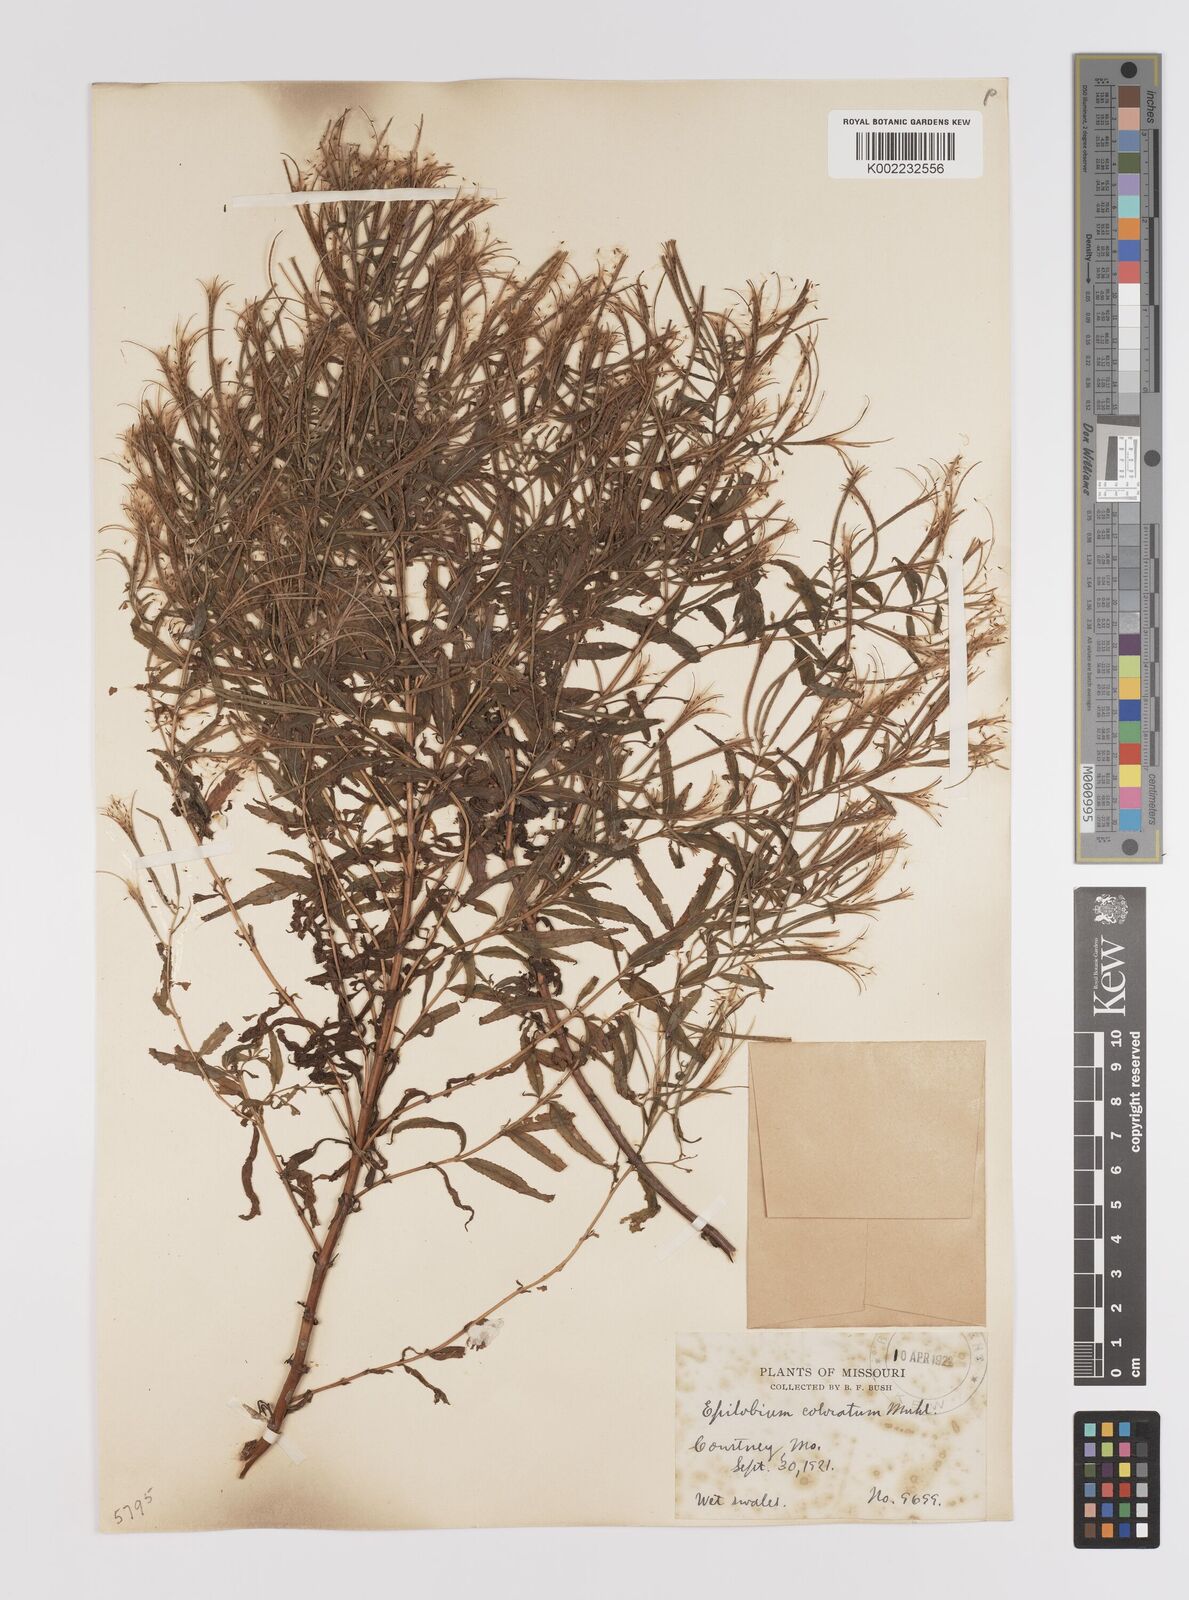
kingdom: Plantae
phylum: Tracheophyta
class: Magnoliopsida
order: Myrtales
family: Onagraceae
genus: Epilobium
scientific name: Epilobium coloratum
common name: Bronze willowherb
